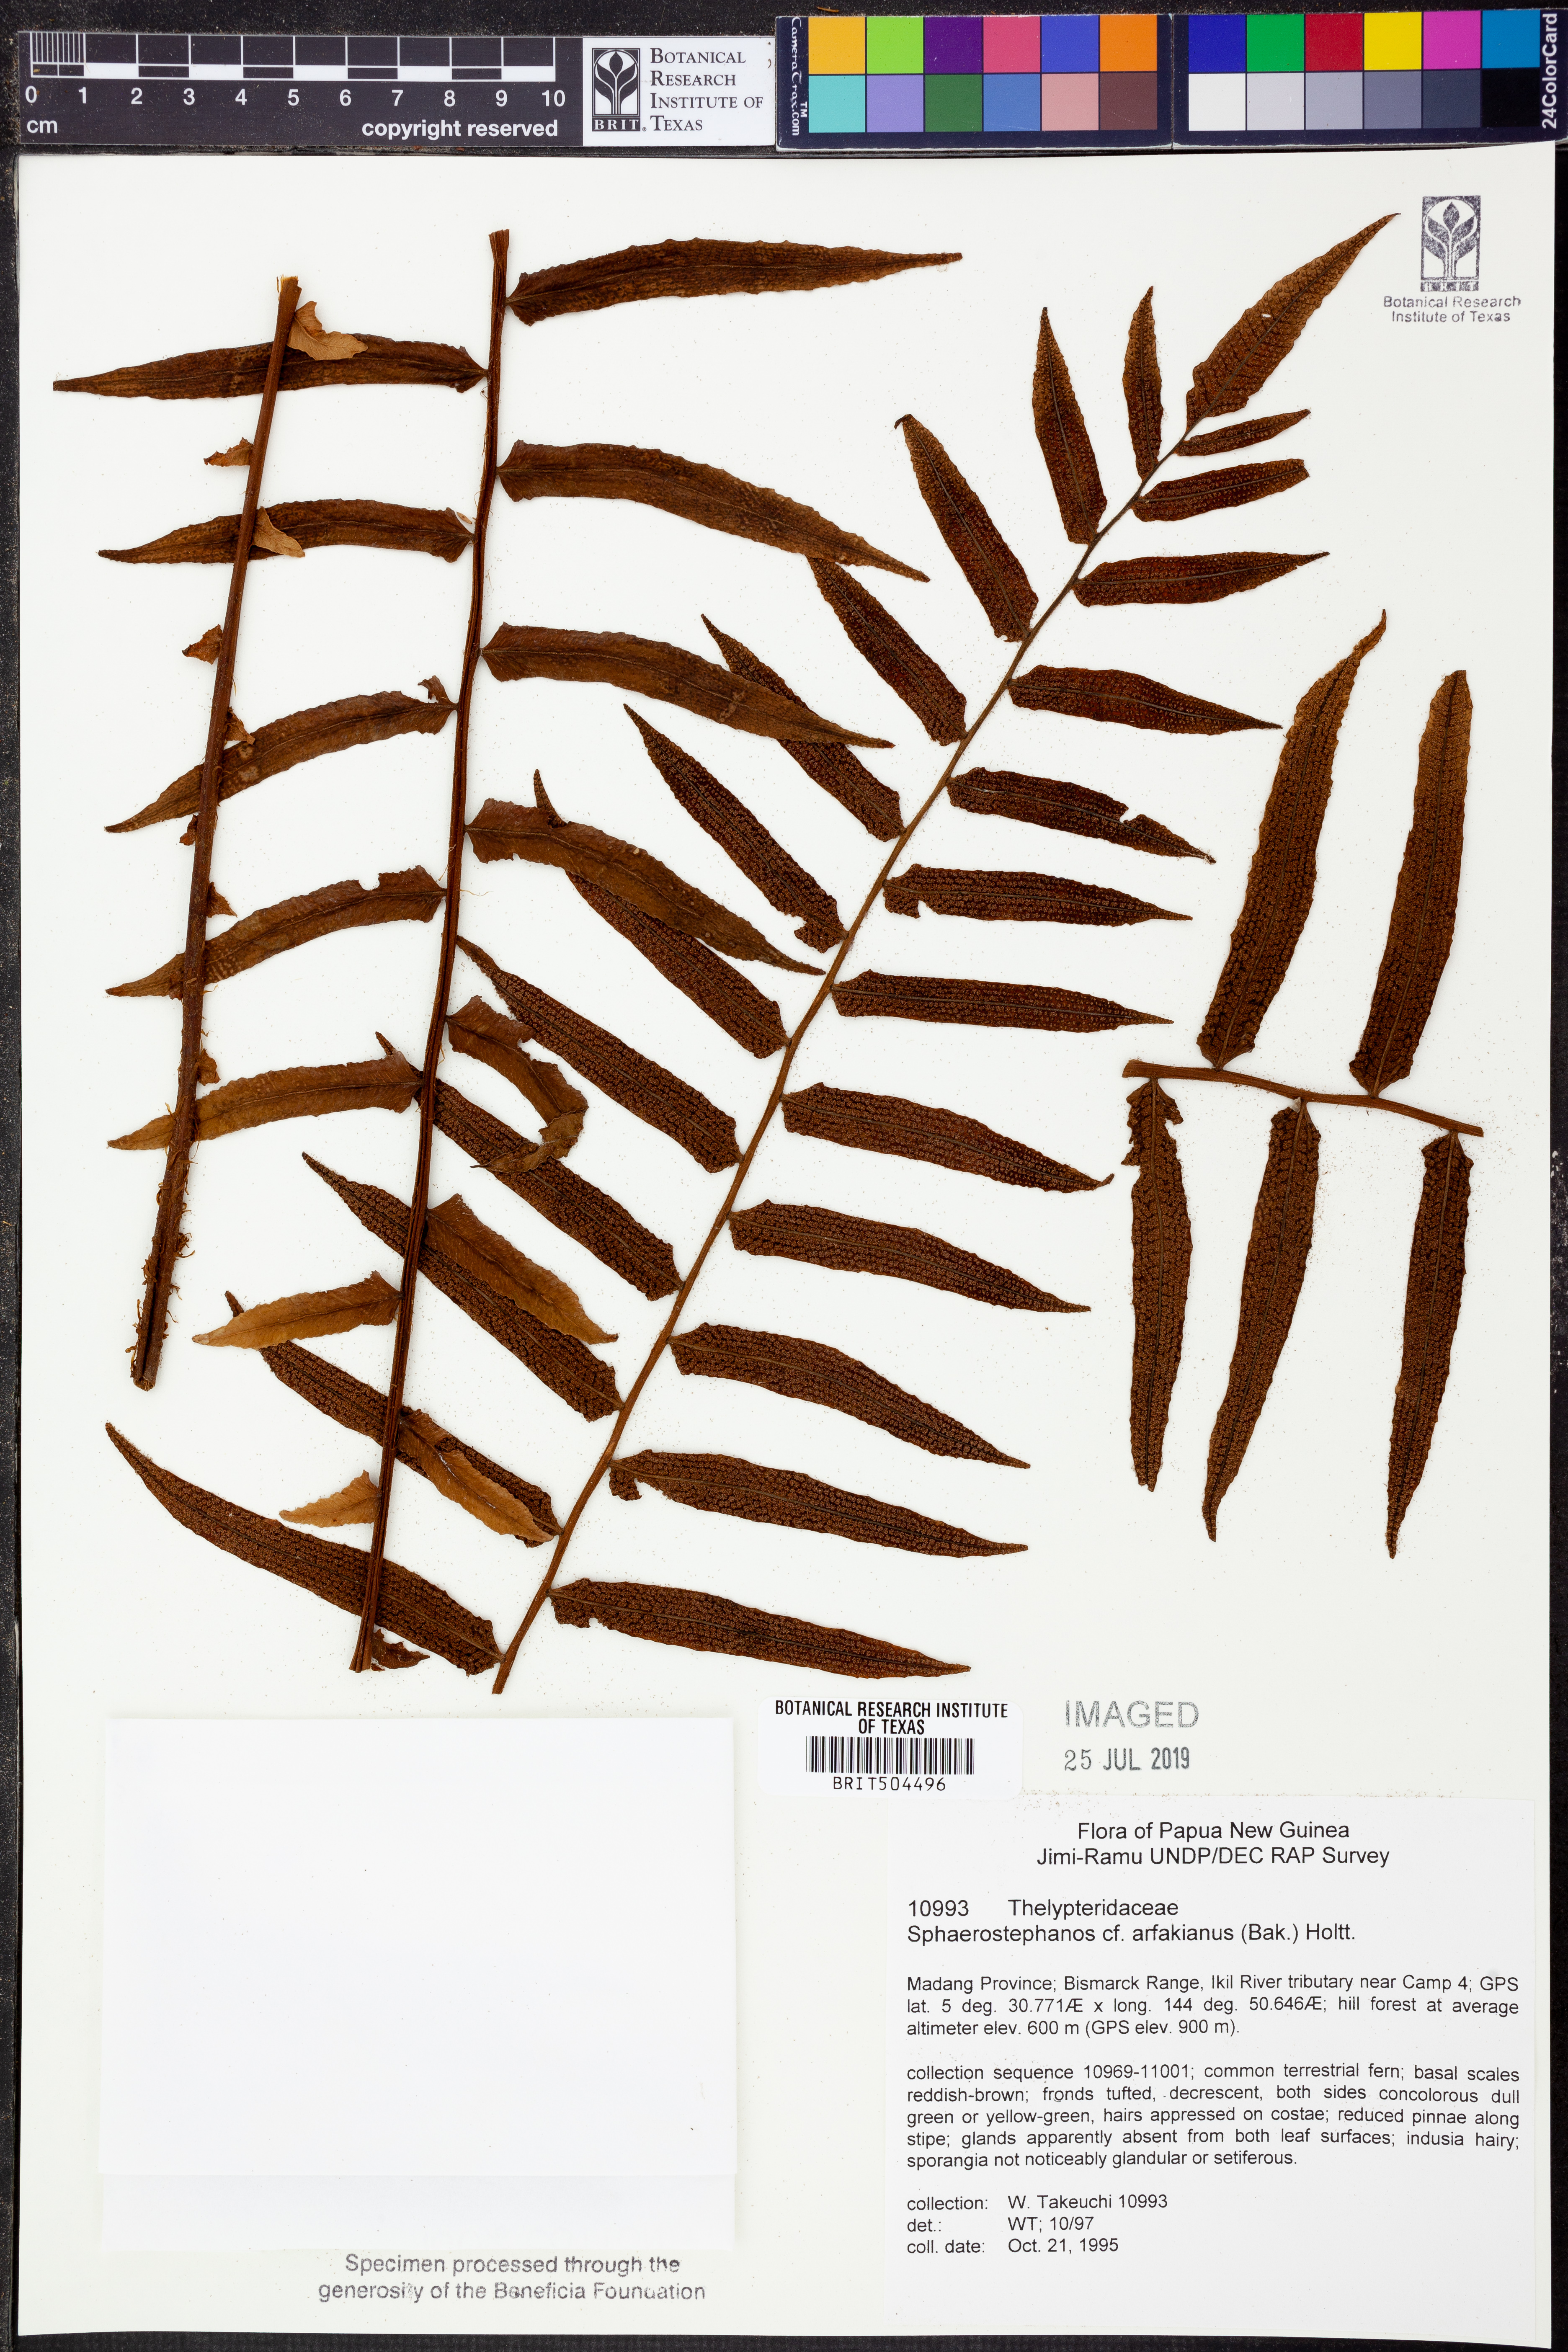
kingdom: Plantae
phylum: Tracheophyta
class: Polypodiopsida
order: Polypodiales
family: Thelypteridaceae
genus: Sphaerostephanos
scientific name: Sphaerostephanos arfakianus
